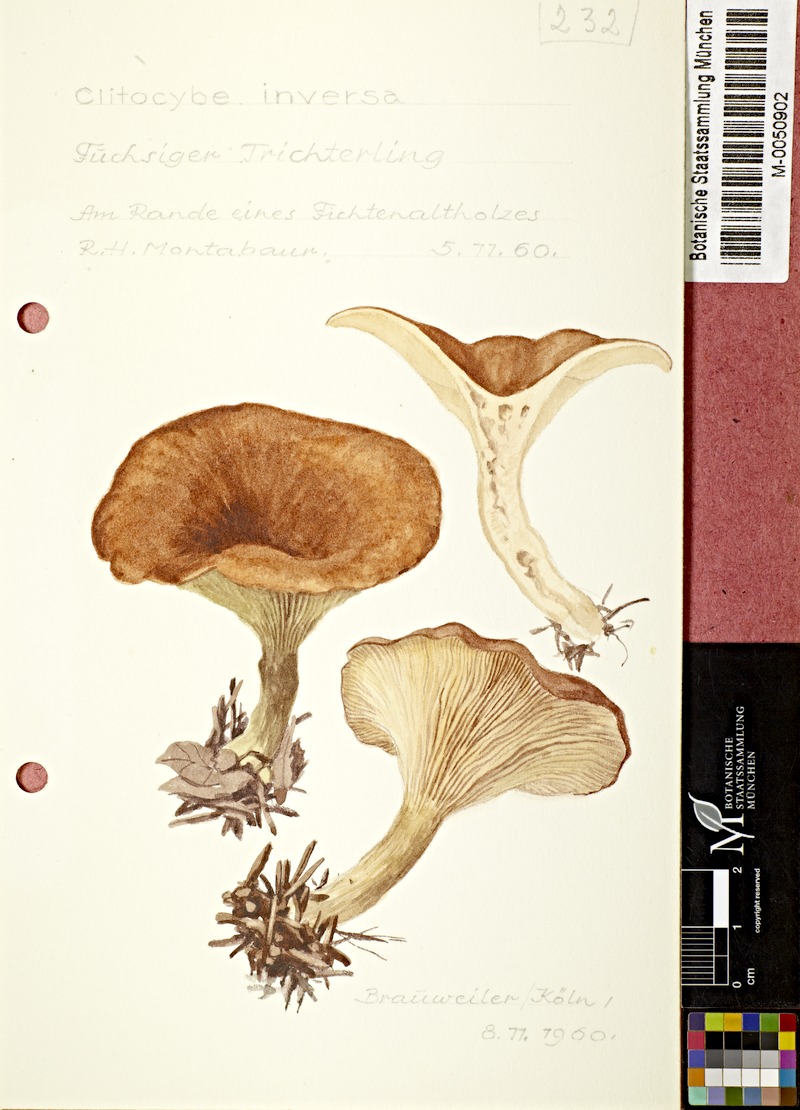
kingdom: Fungi
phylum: Basidiomycota
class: Agaricomycetes
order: Agaricales
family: Tricholomataceae
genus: Paralepista
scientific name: Paralepista flaccida
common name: Tawny funnel cap
